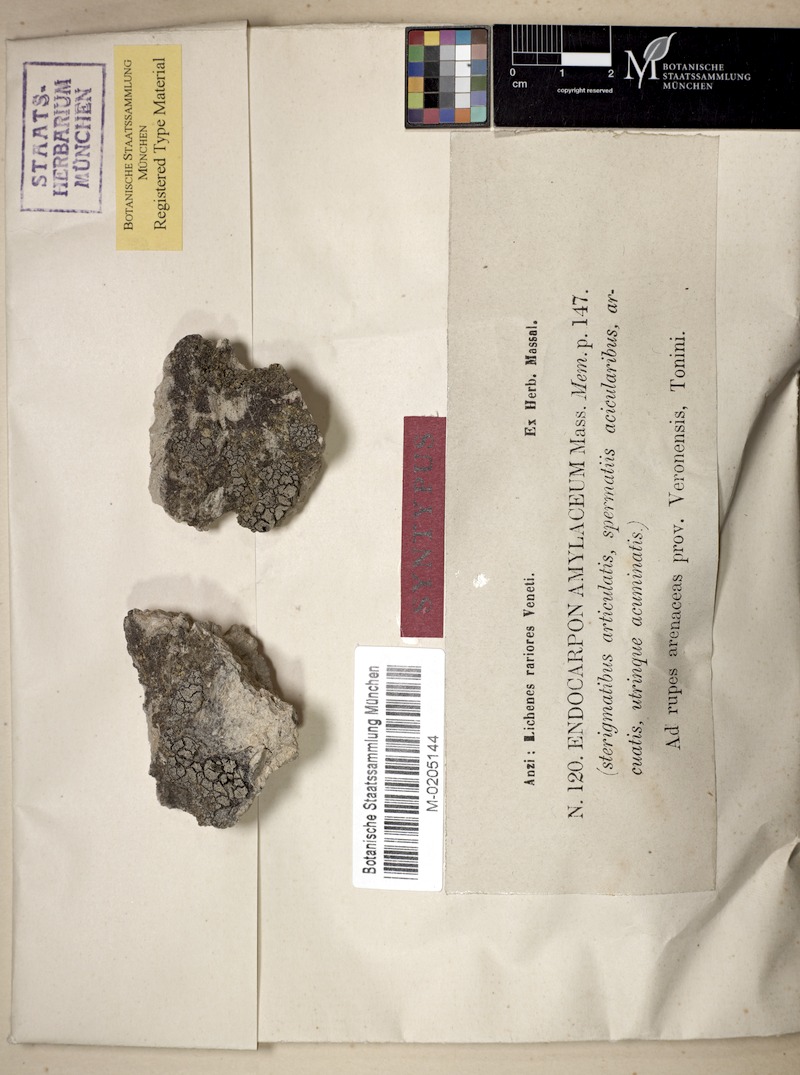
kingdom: Fungi
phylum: Ascomycota
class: Eurotiomycetes
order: Verrucariales
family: Verrucariaceae
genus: Dermatocarpon
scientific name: Dermatocarpon
